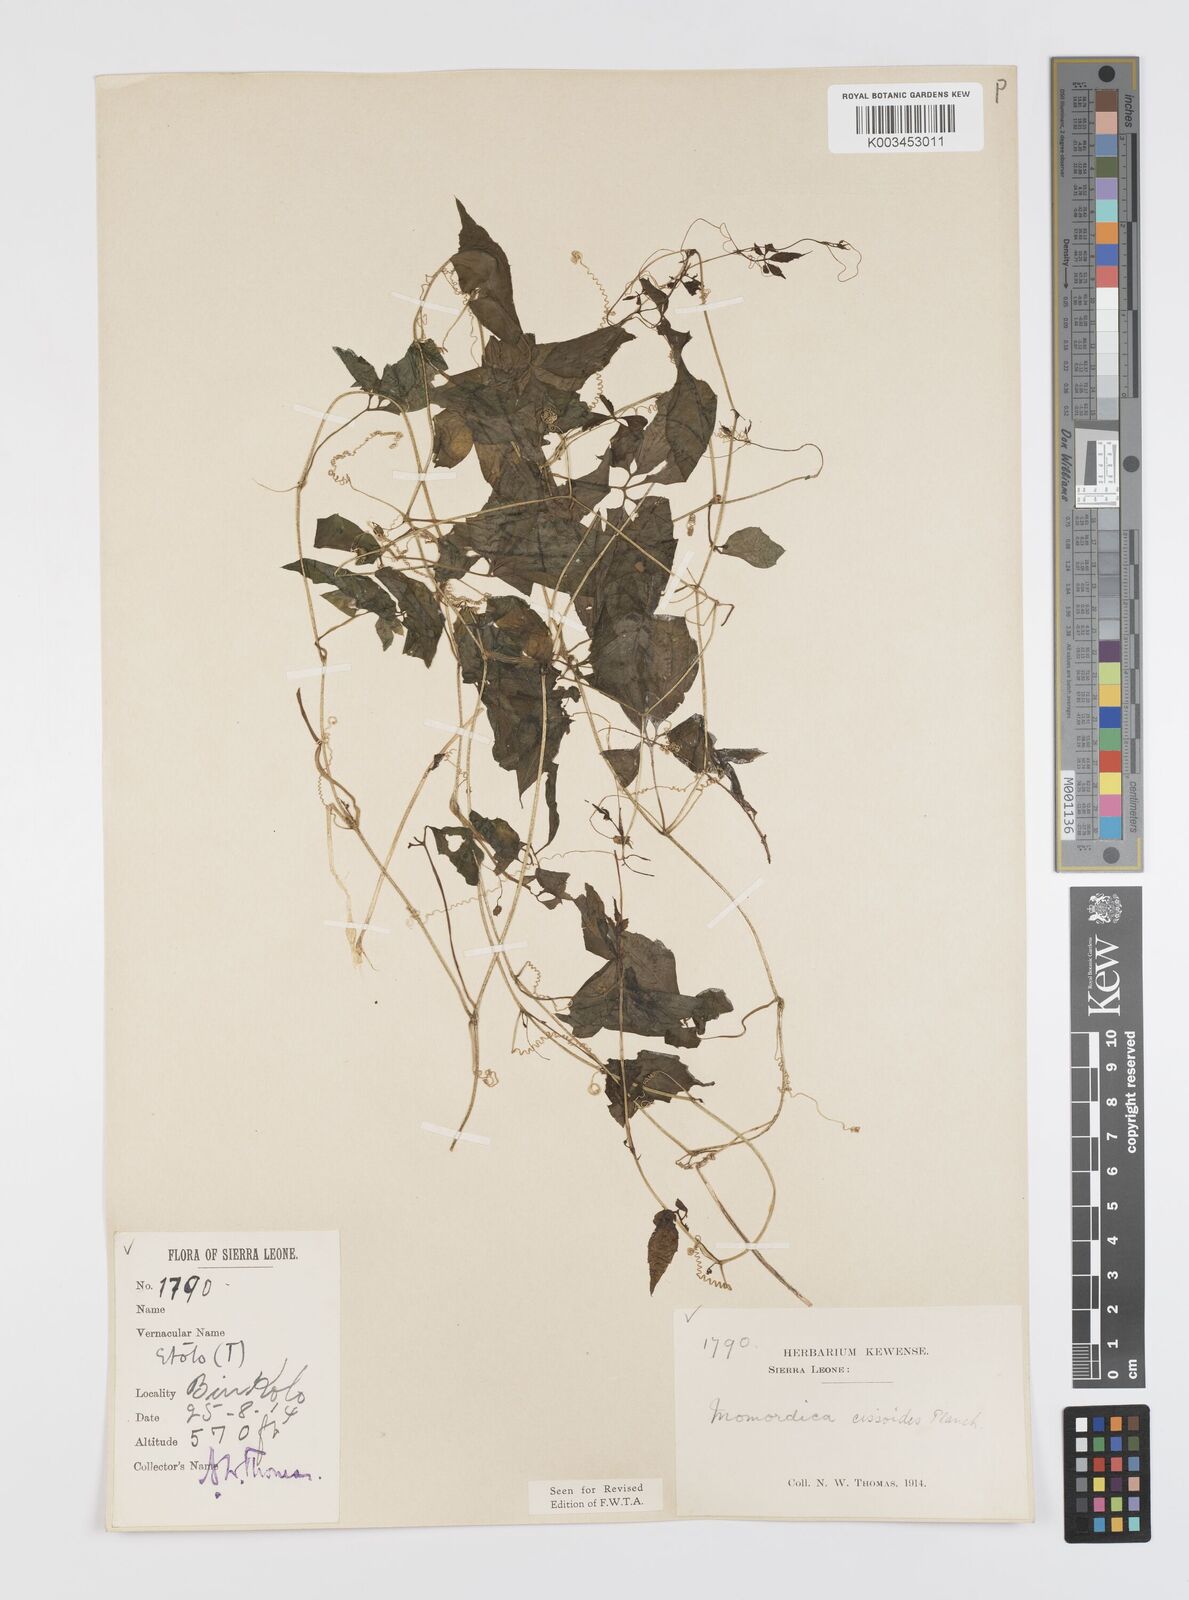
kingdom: Plantae
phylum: Tracheophyta
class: Magnoliopsida
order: Cucurbitales
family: Cucurbitaceae
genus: Momordica
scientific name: Momordica cissoides
